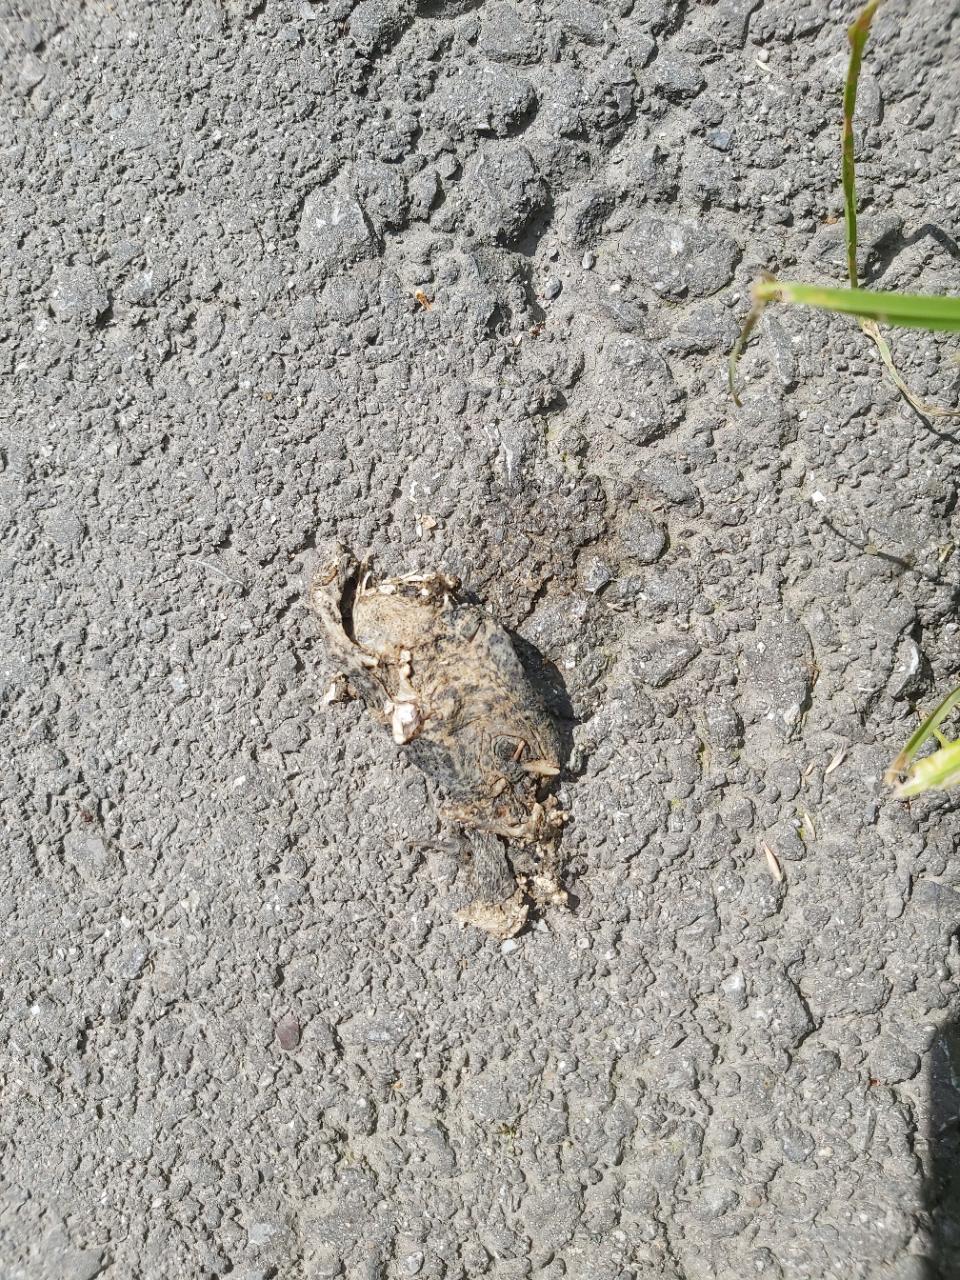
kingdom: Animalia
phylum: Chordata
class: Amphibia
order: Anura
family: Bufonidae
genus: Bufo
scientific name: Bufo bufo
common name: Common toad
